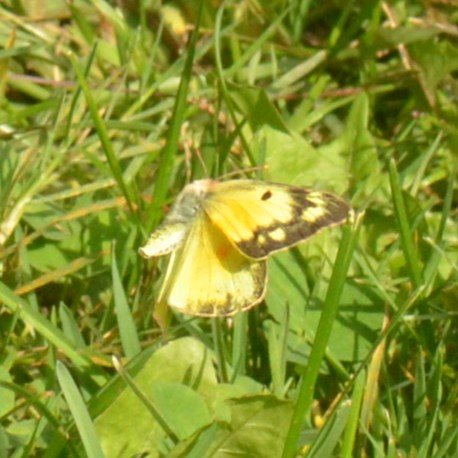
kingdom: Animalia
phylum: Arthropoda
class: Insecta
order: Lepidoptera
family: Pieridae
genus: Colias
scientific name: Colias eurytheme
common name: Orange Sulphur
